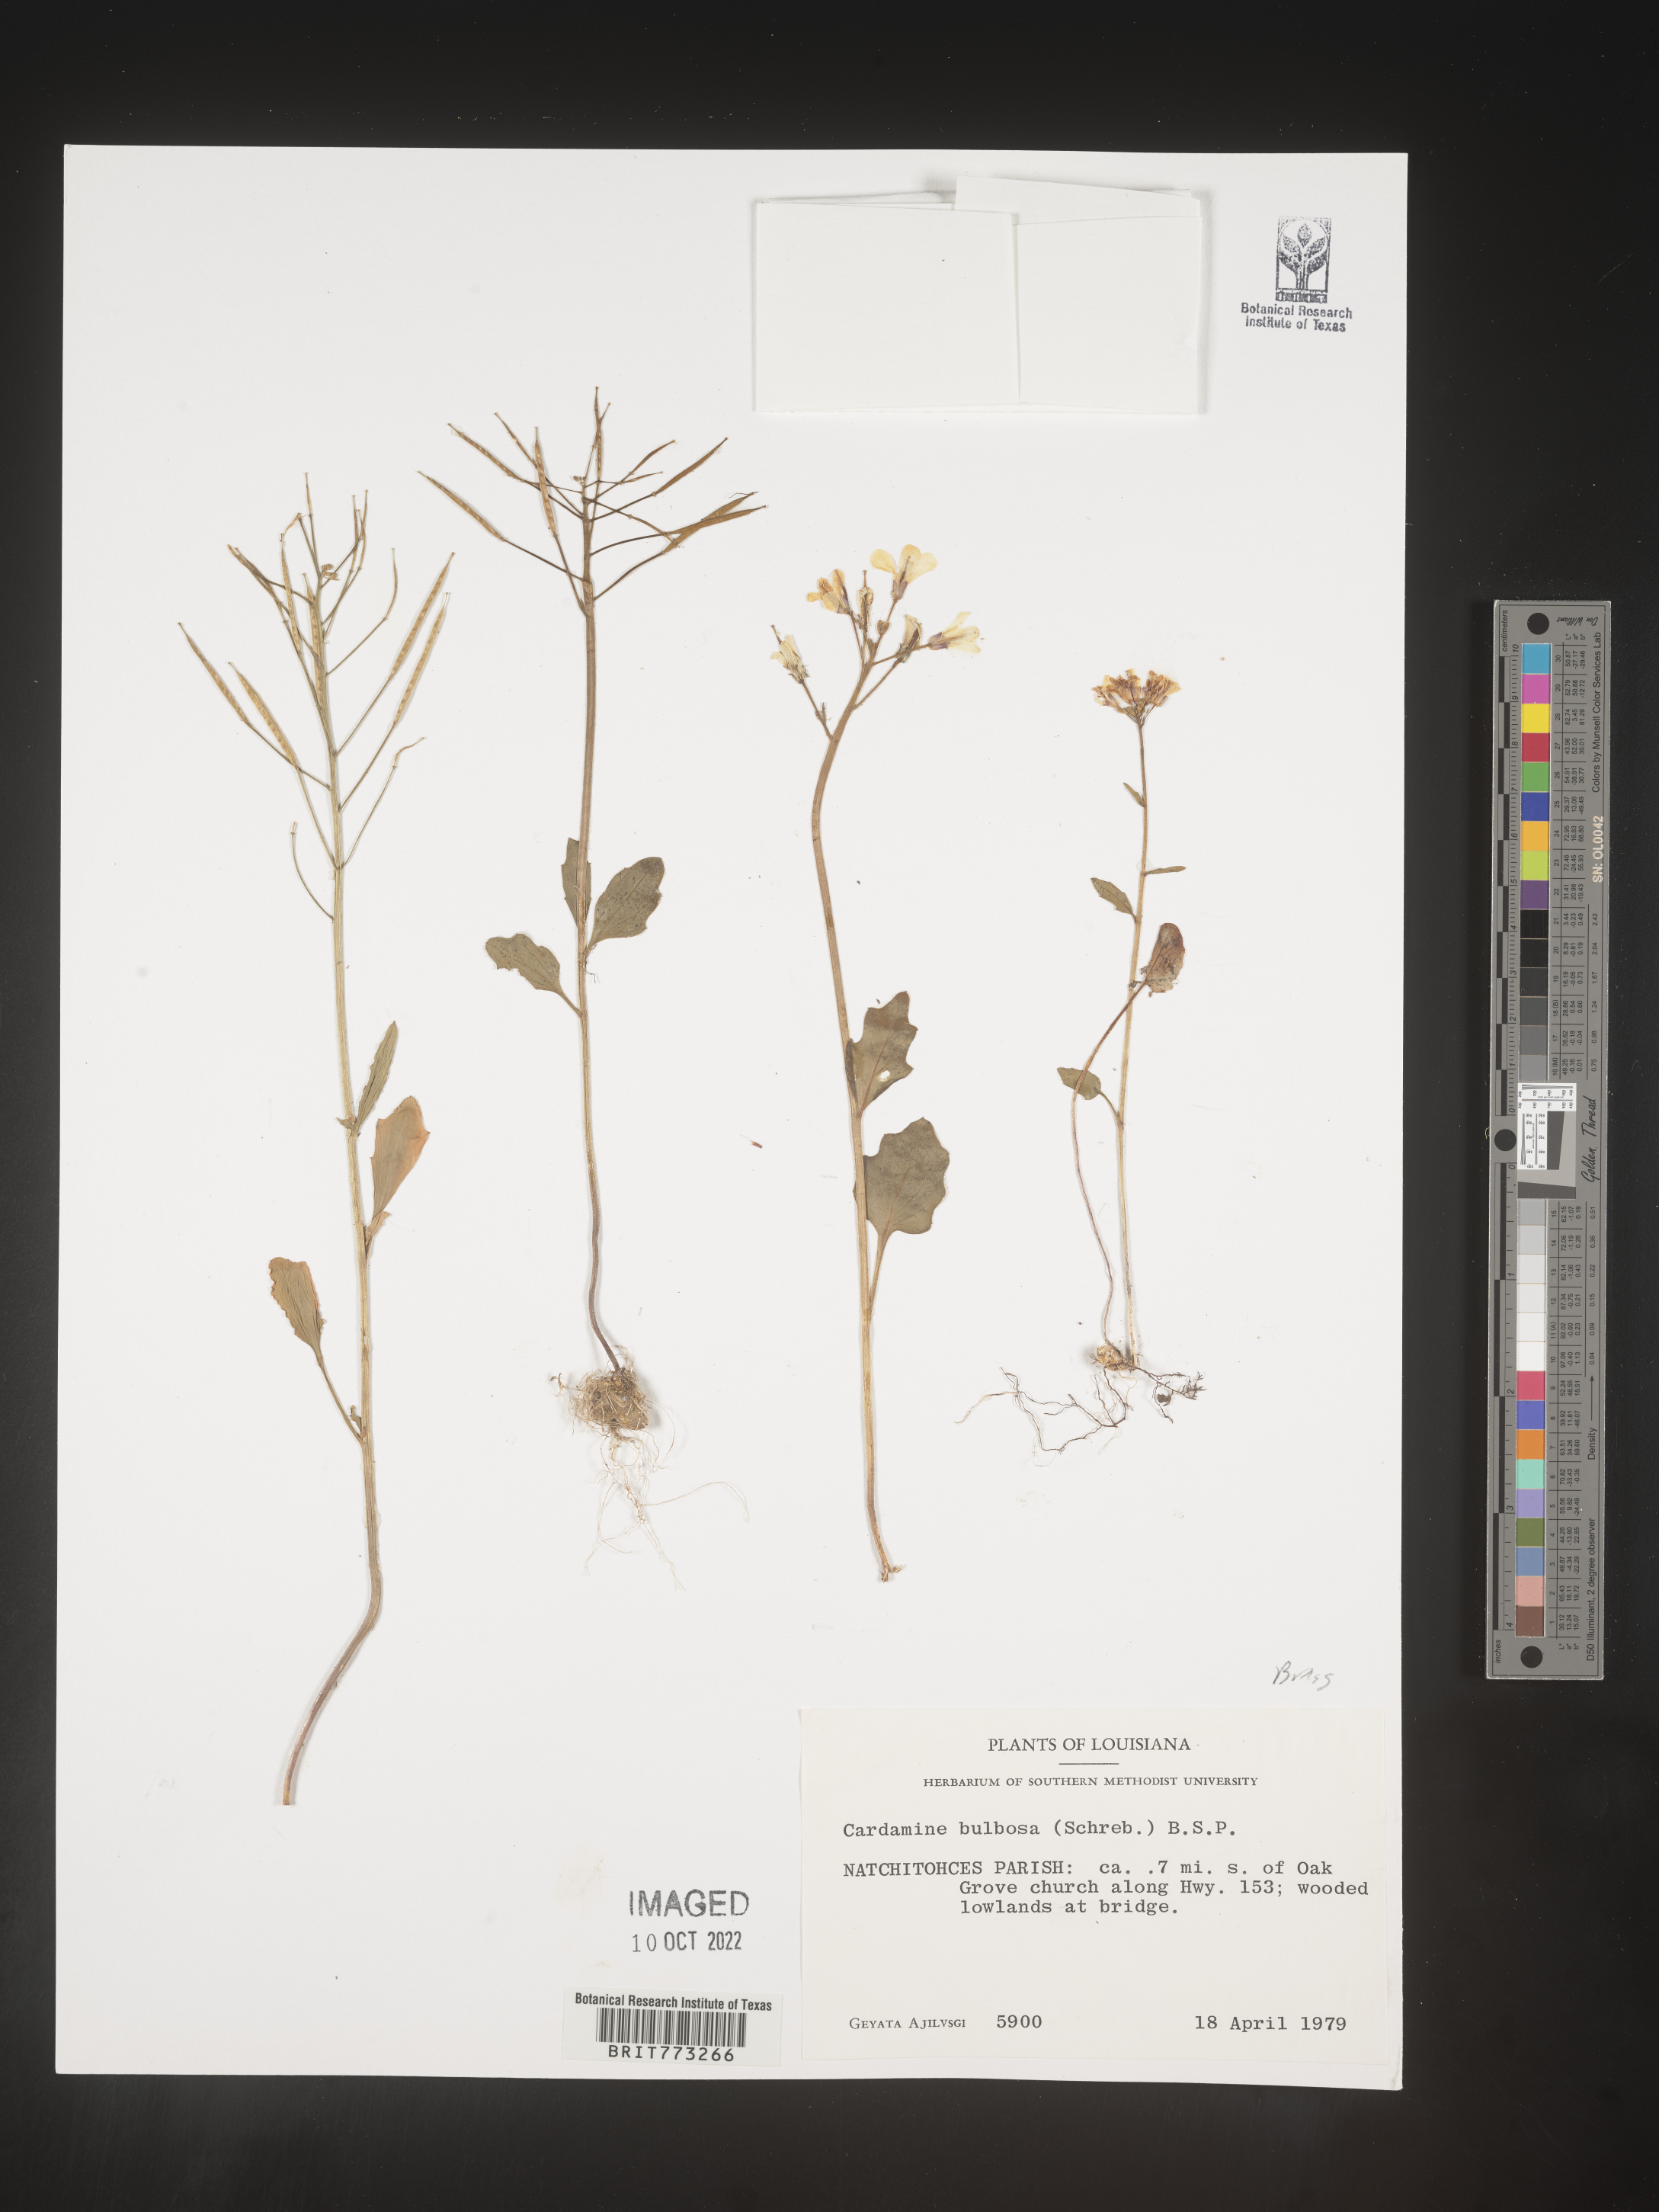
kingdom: Plantae
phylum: Tracheophyta
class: Magnoliopsida
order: Brassicales
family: Brassicaceae
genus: Cardamine
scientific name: Cardamine bulbosa
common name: Spring cress
